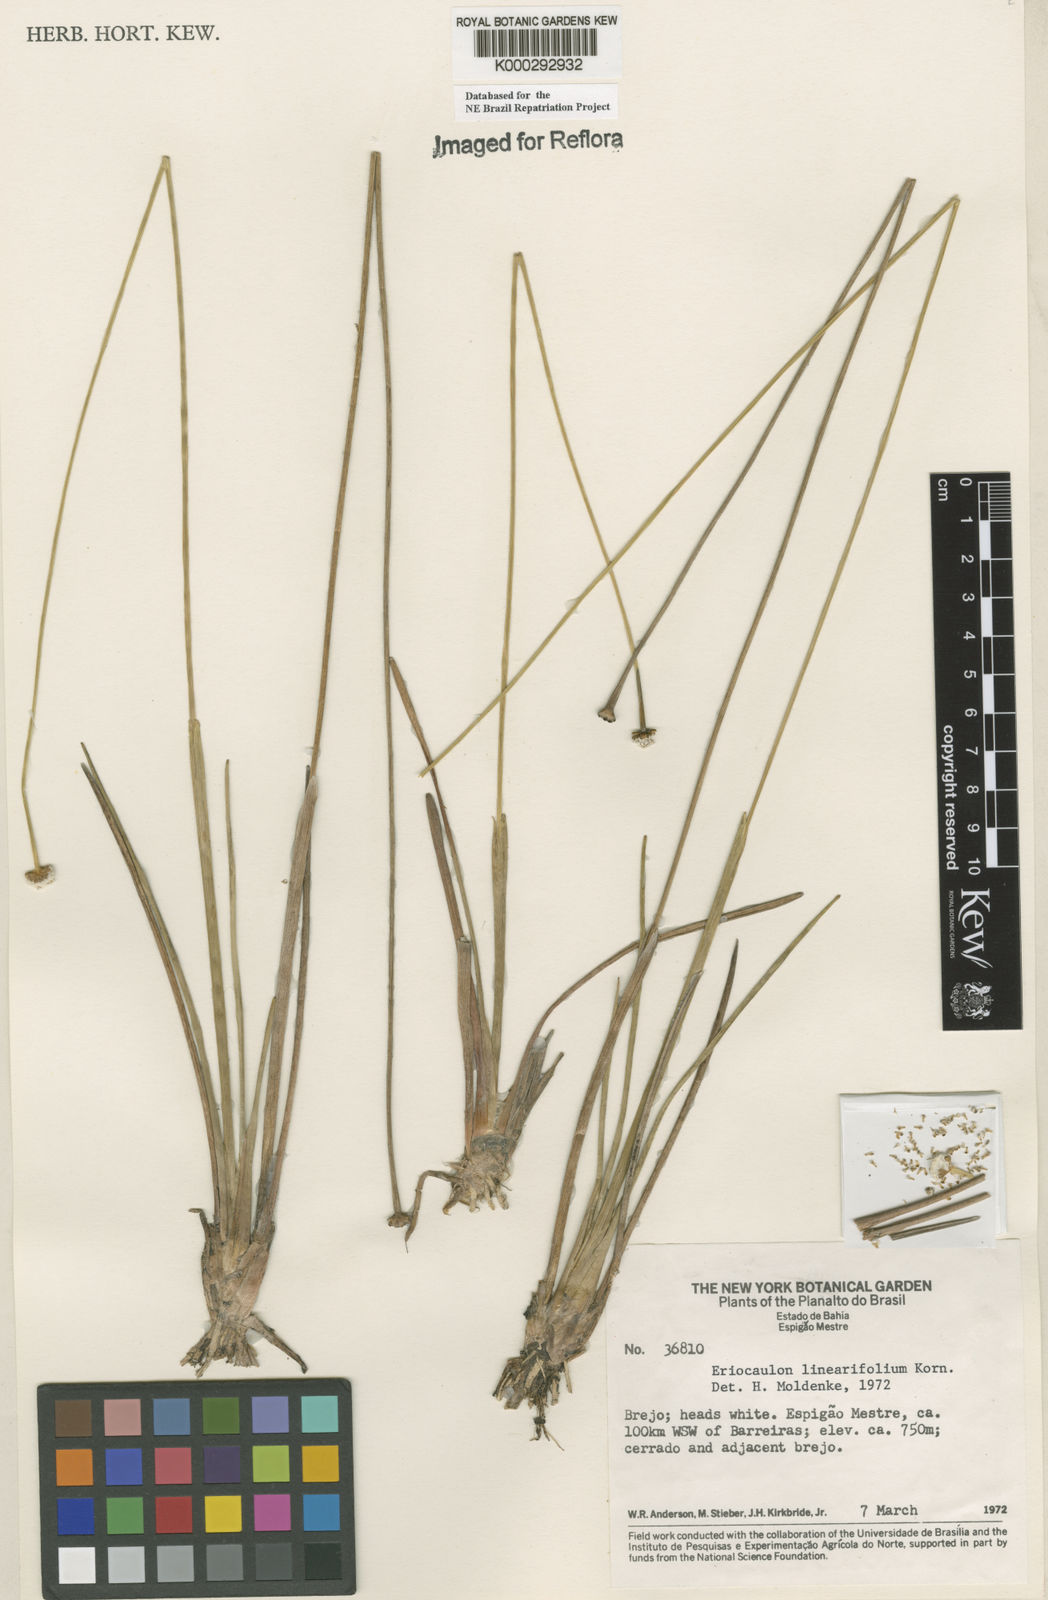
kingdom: Plantae
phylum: Tracheophyta
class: Liliopsida
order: Poales
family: Eriocaulaceae
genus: Eriocaulon
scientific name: Eriocaulon
